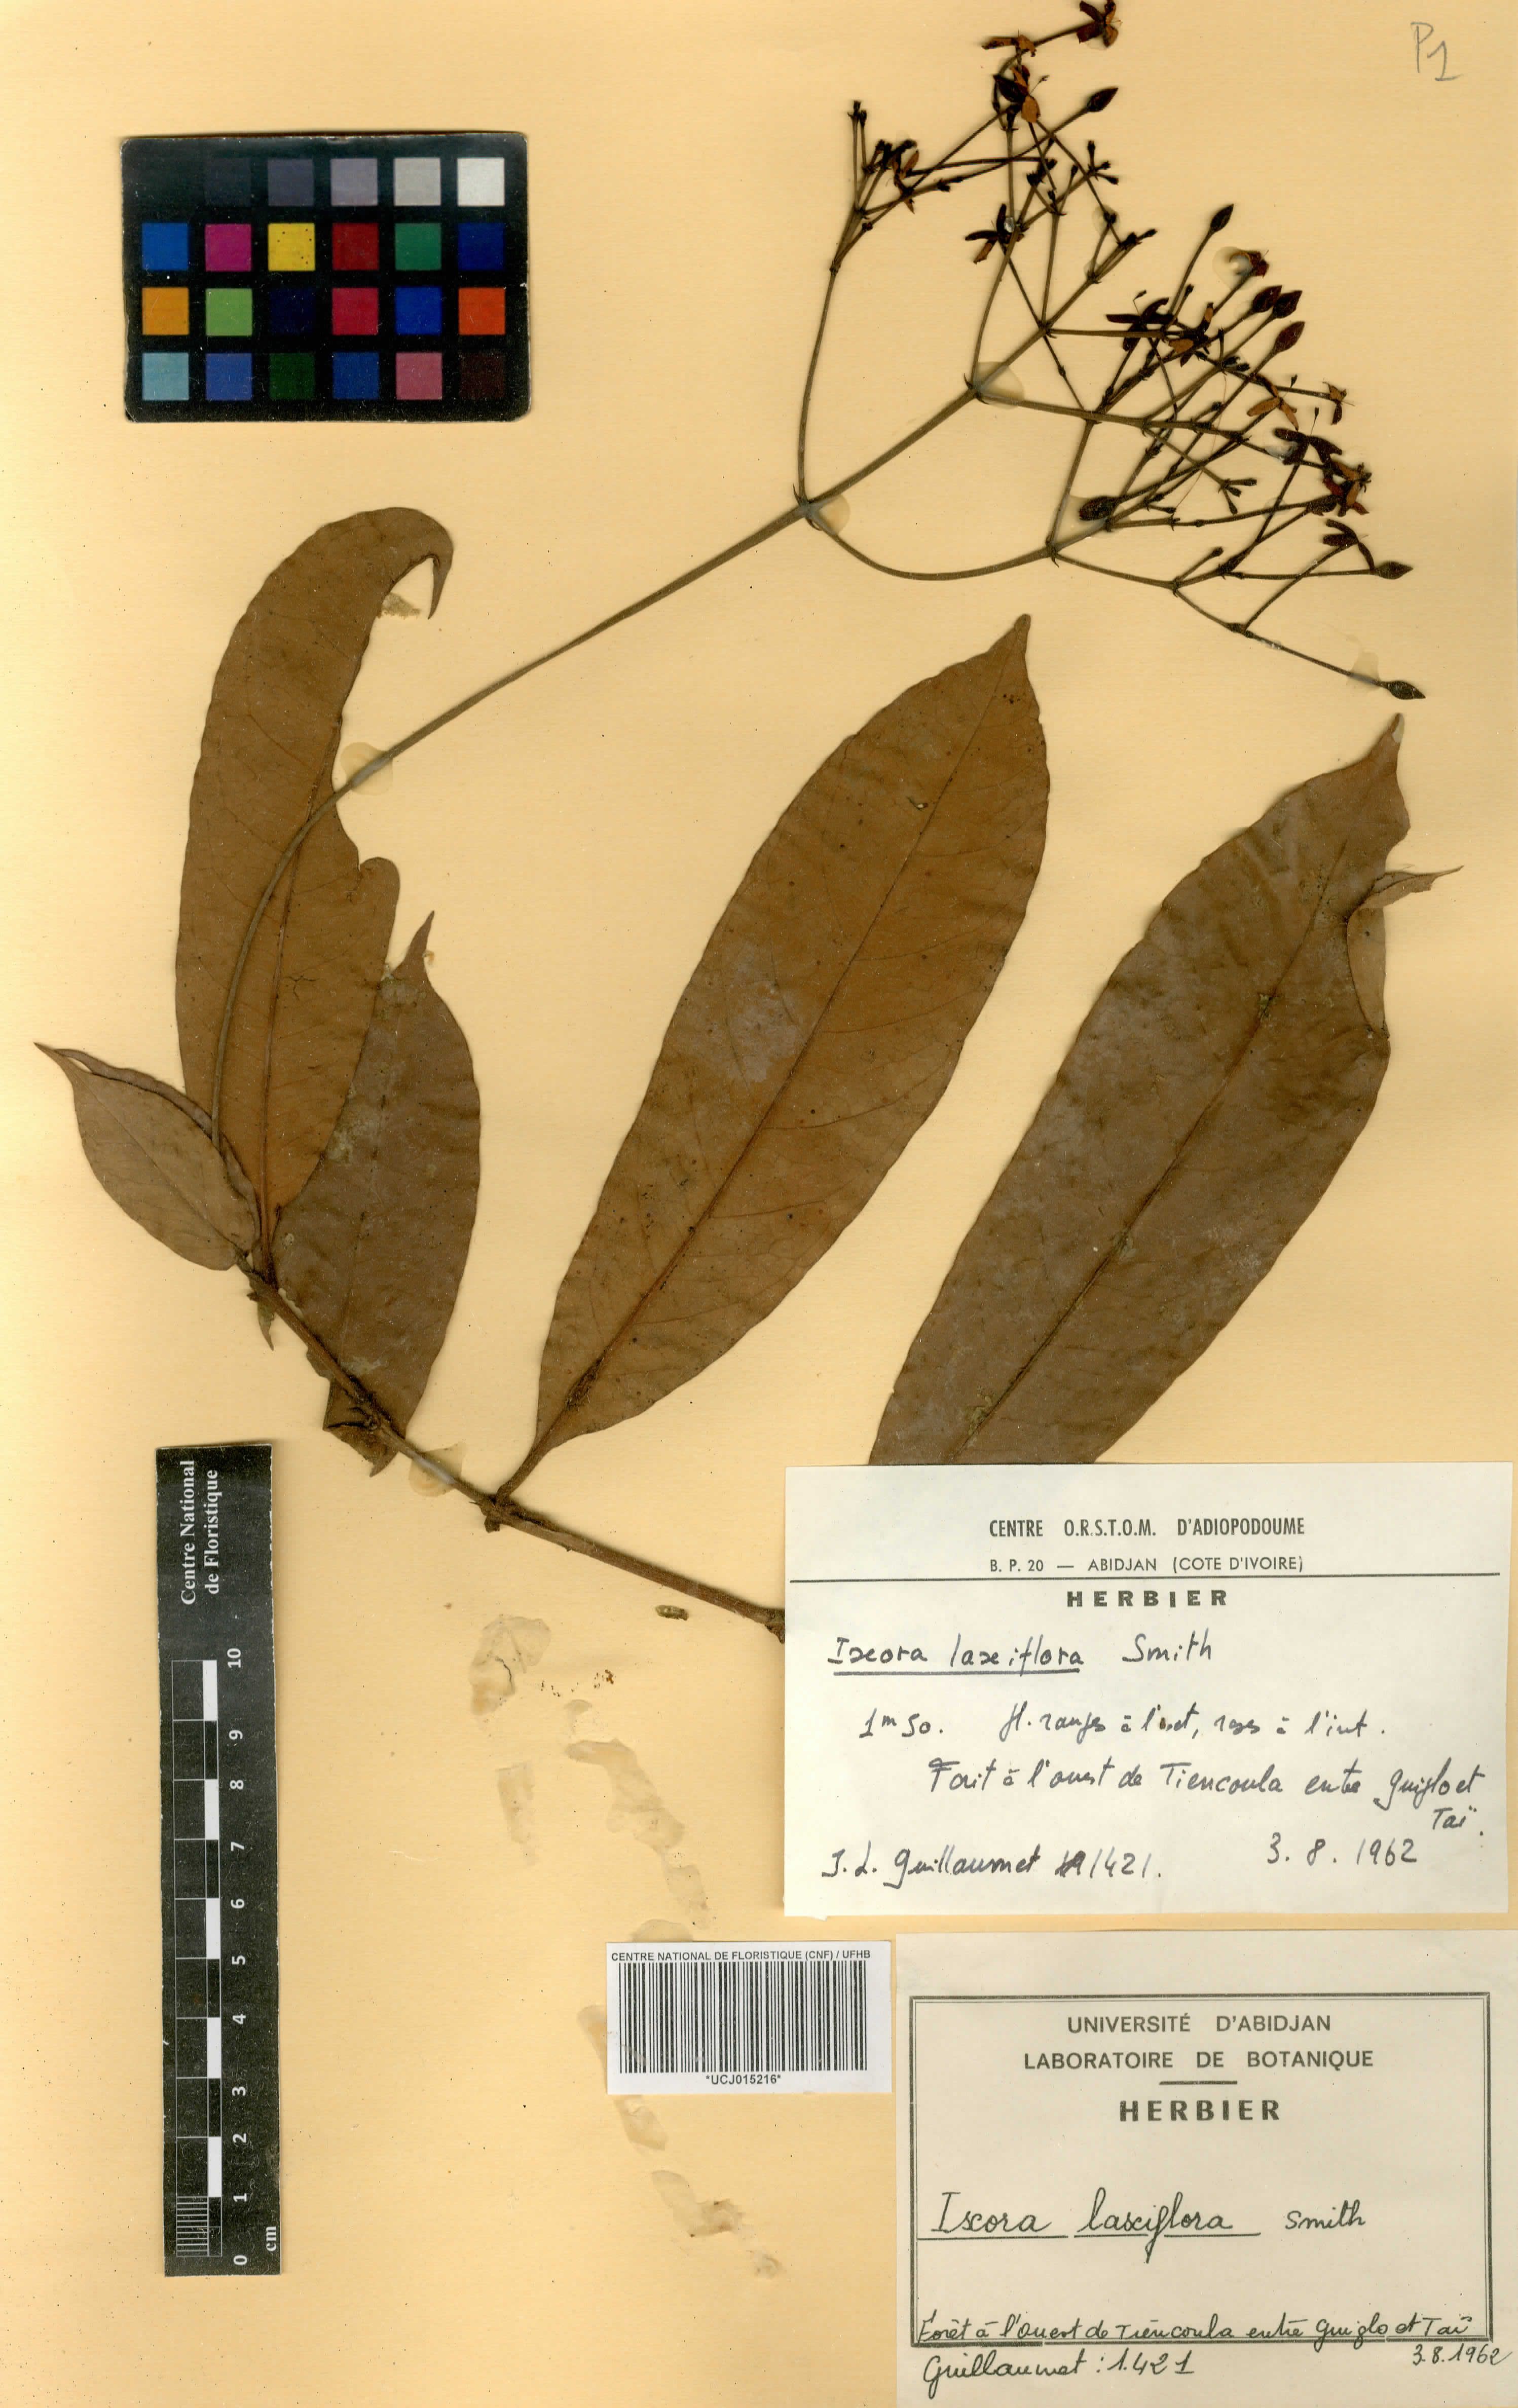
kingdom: Plantae
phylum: Tracheophyta
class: Magnoliopsida
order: Gentianales
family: Rubiaceae
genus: Ixora
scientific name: Ixora laxiflora
